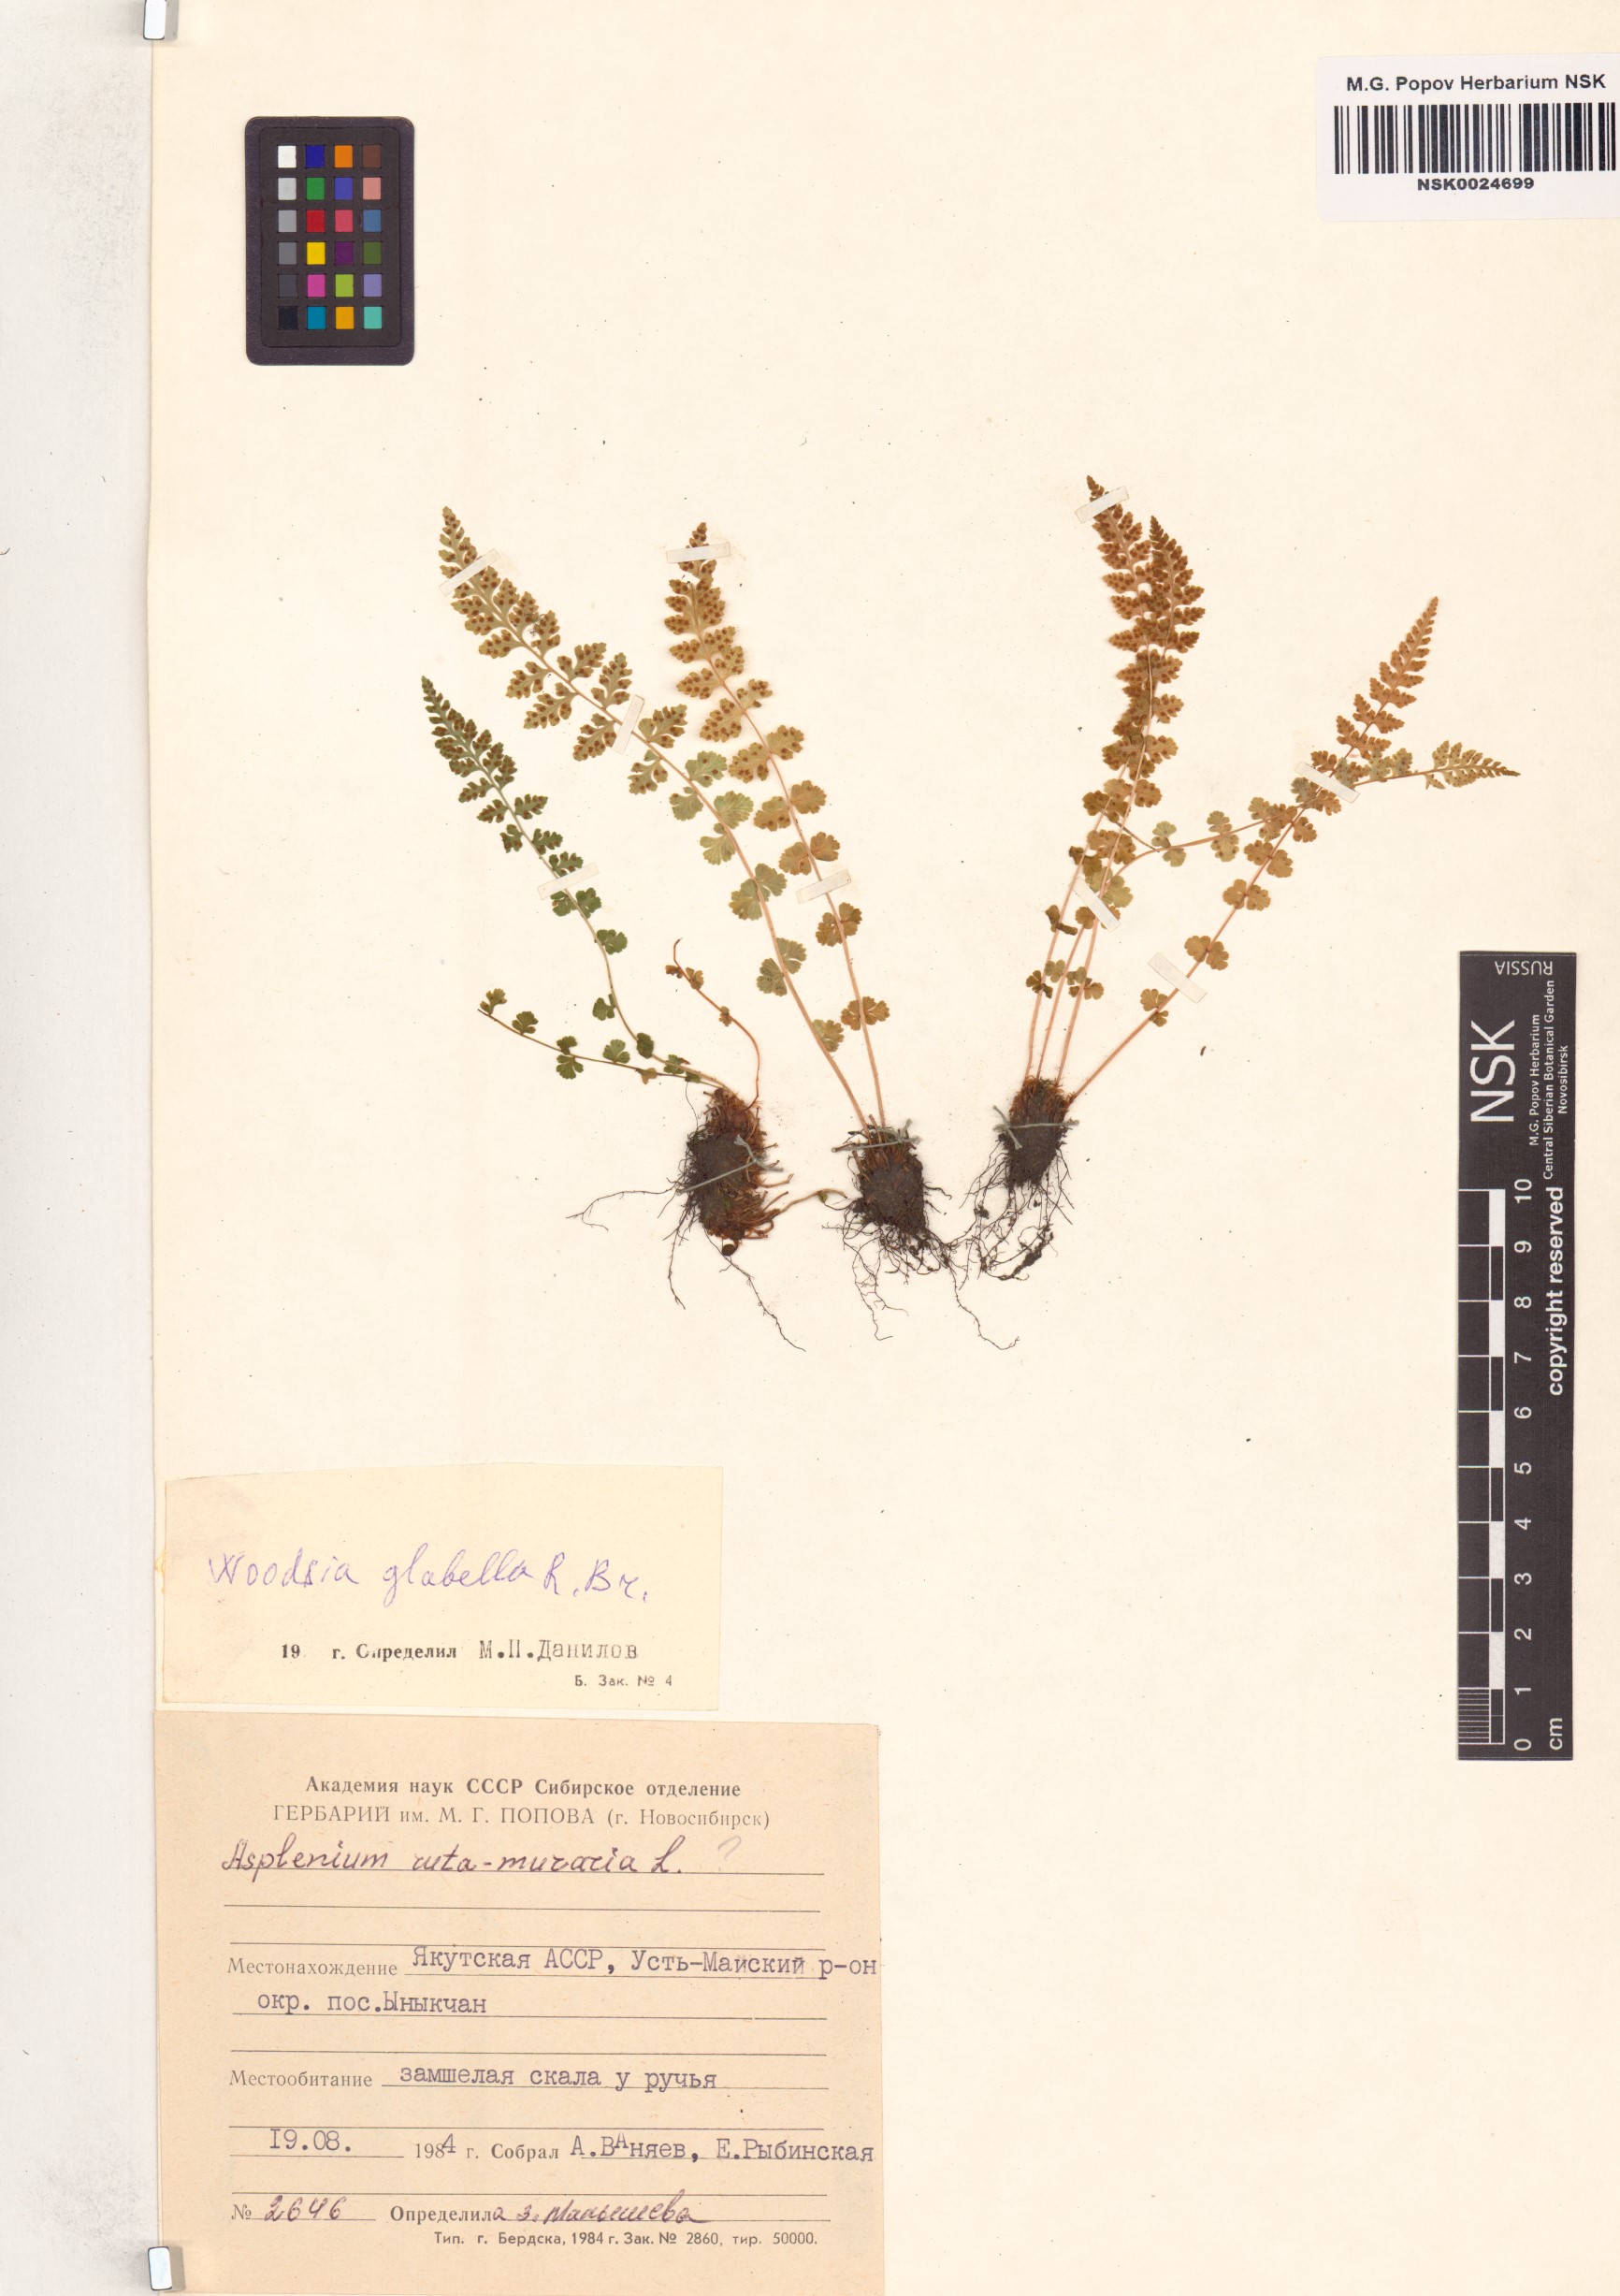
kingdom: Plantae
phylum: Tracheophyta
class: Polypodiopsida
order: Polypodiales
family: Woodsiaceae
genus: Woodsia
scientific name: Woodsia glabella
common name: Smooth woodsia
